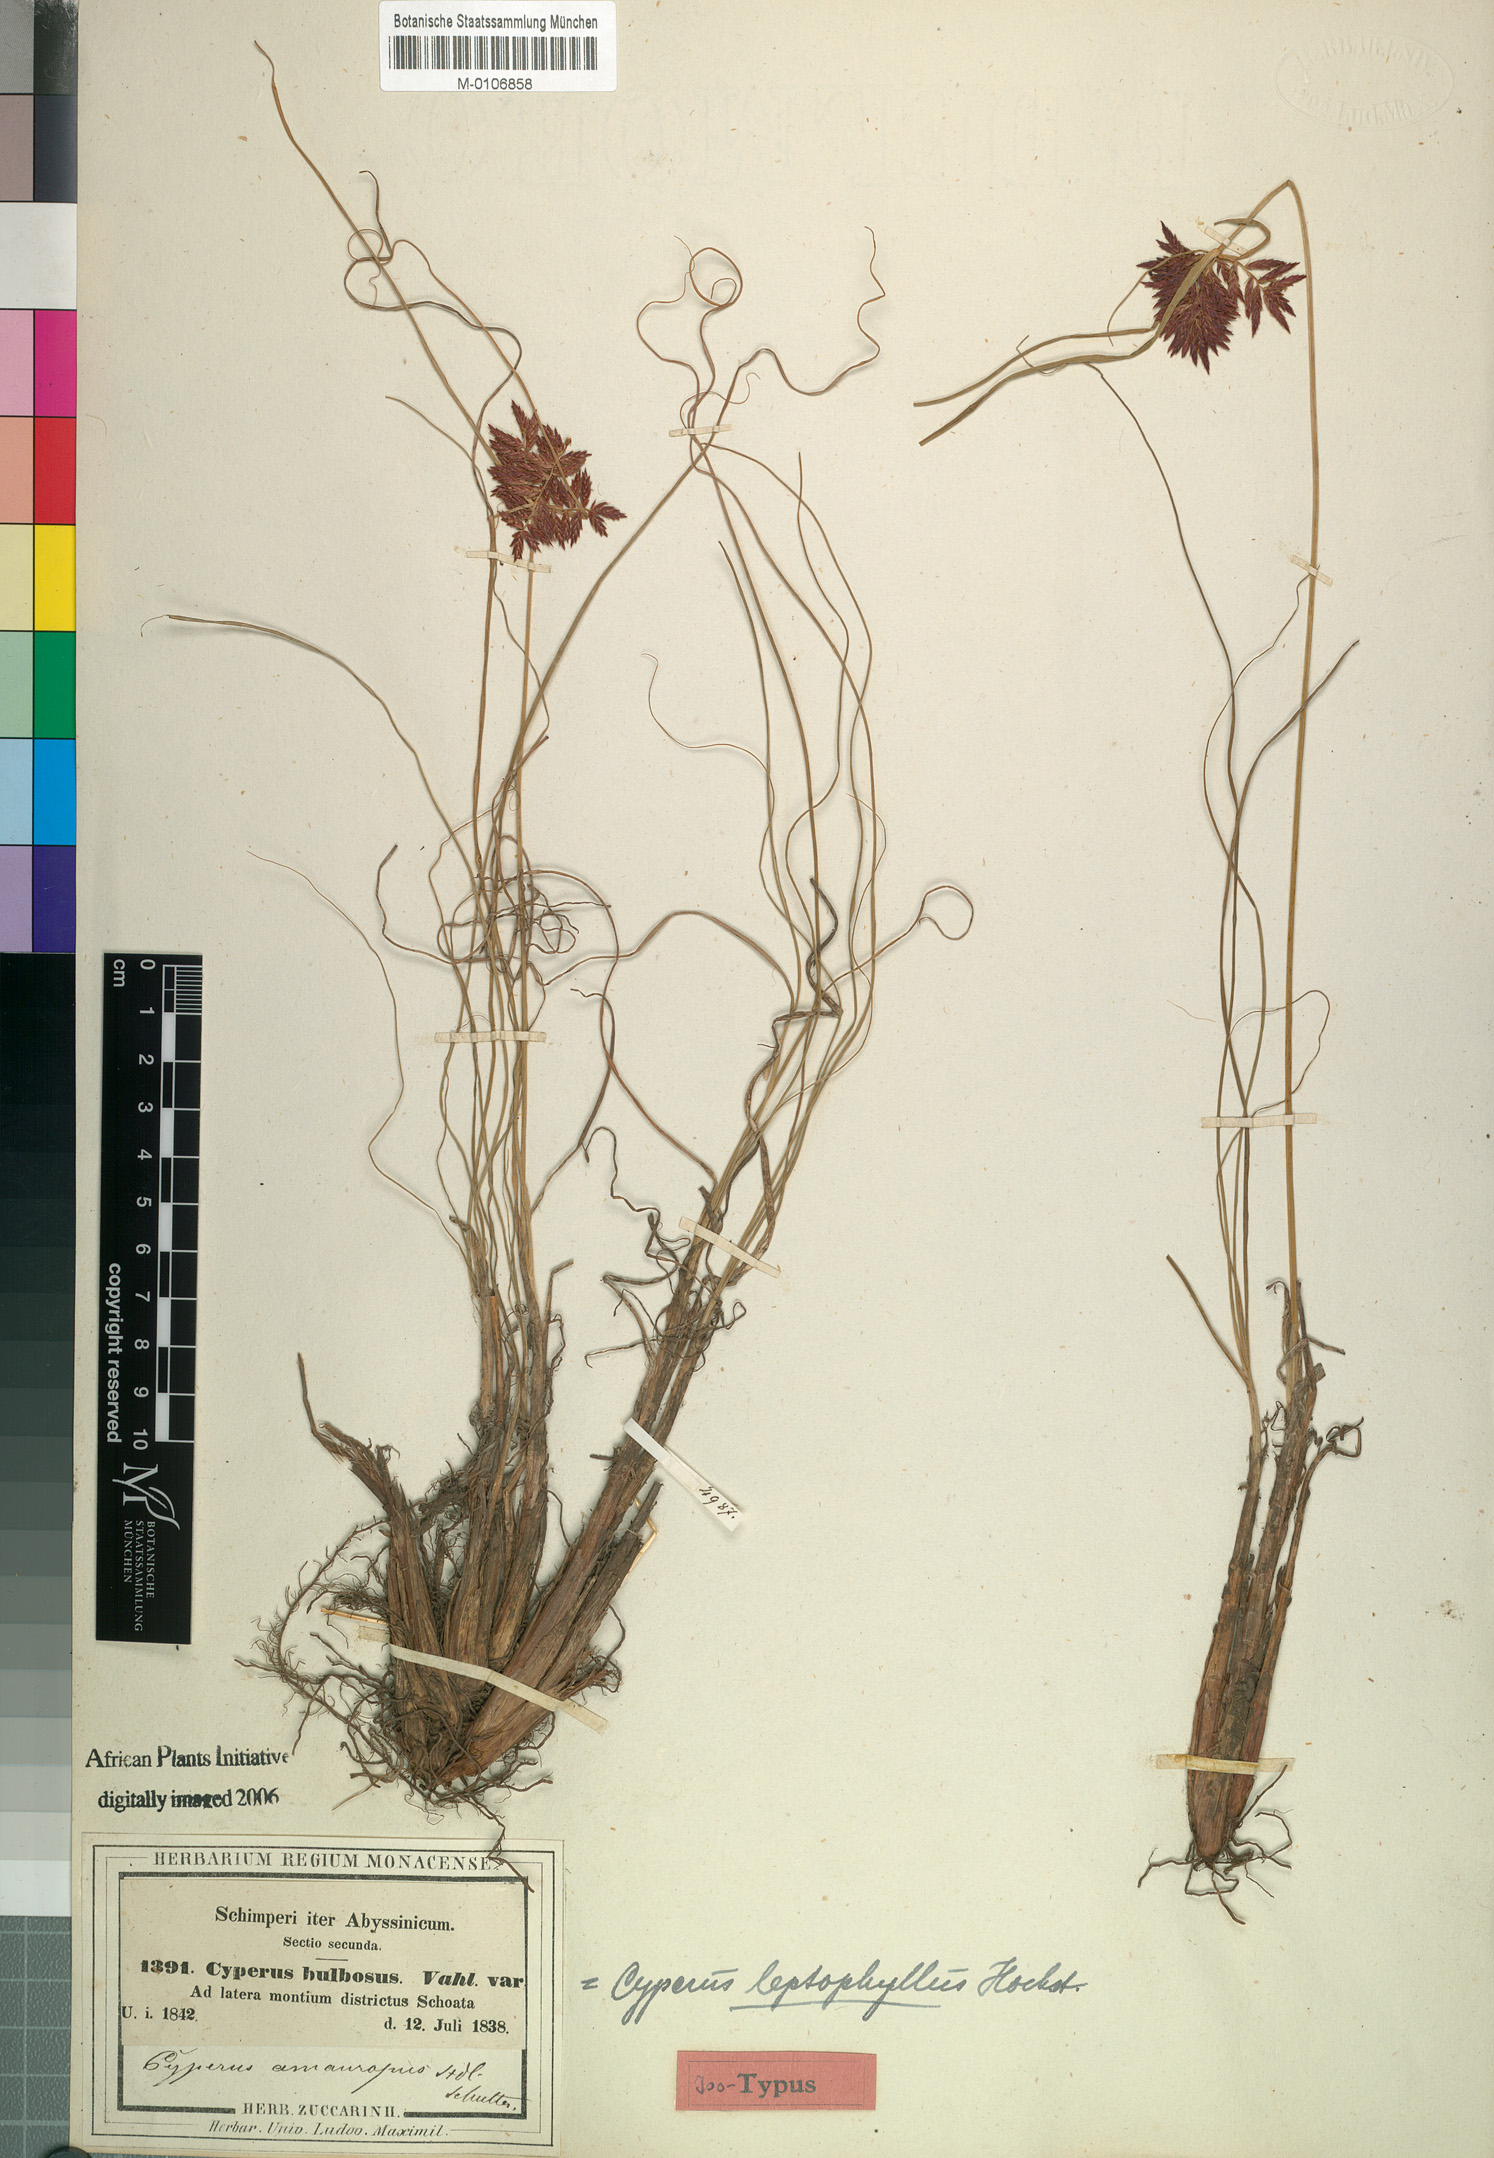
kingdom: Plantae
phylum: Tracheophyta
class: Liliopsida
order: Poales
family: Cyperaceae
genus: Cyperus
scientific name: Cyperus amauropus
